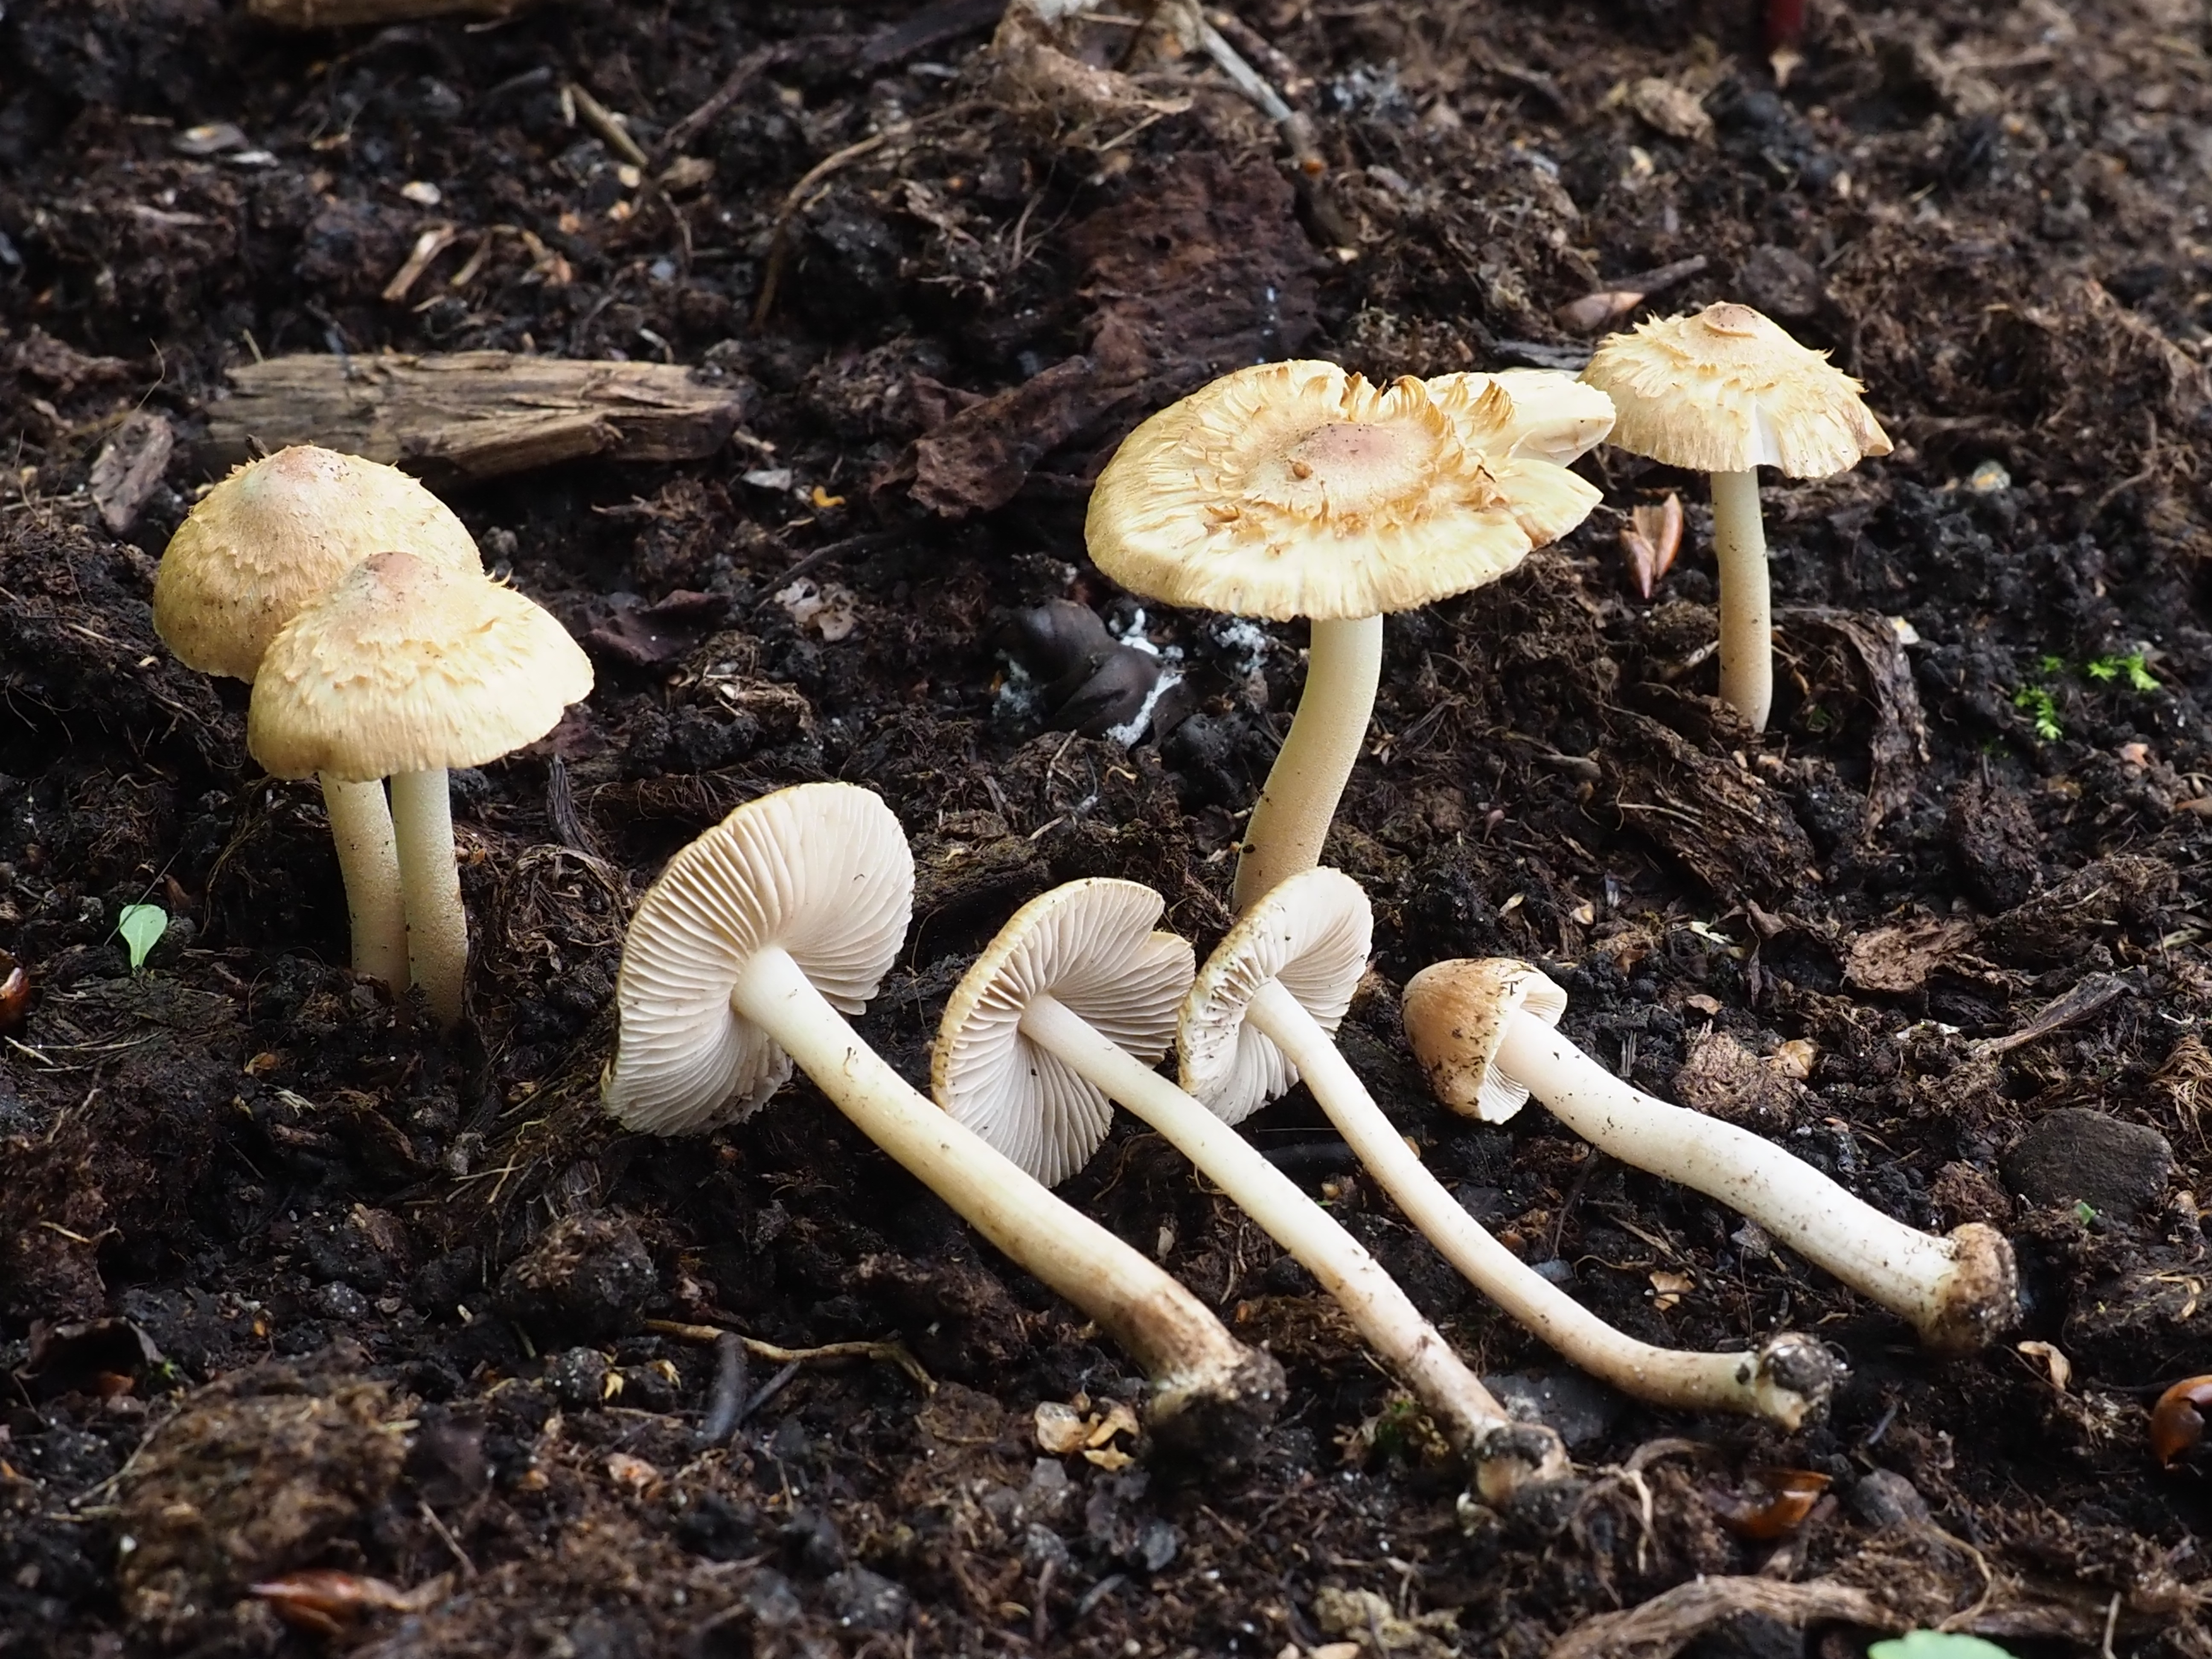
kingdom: Fungi
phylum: Basidiomycota
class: Agaricomycetes
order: Agaricales
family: Inocybaceae
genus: Inocybe
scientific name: Inocybe mixtilis
